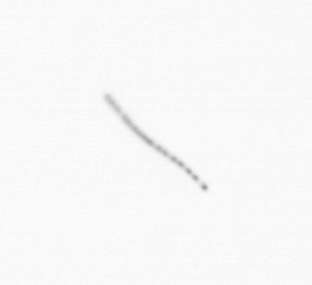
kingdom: Chromista
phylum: Ochrophyta
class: Bacillariophyceae
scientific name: Bacillariophyceae
